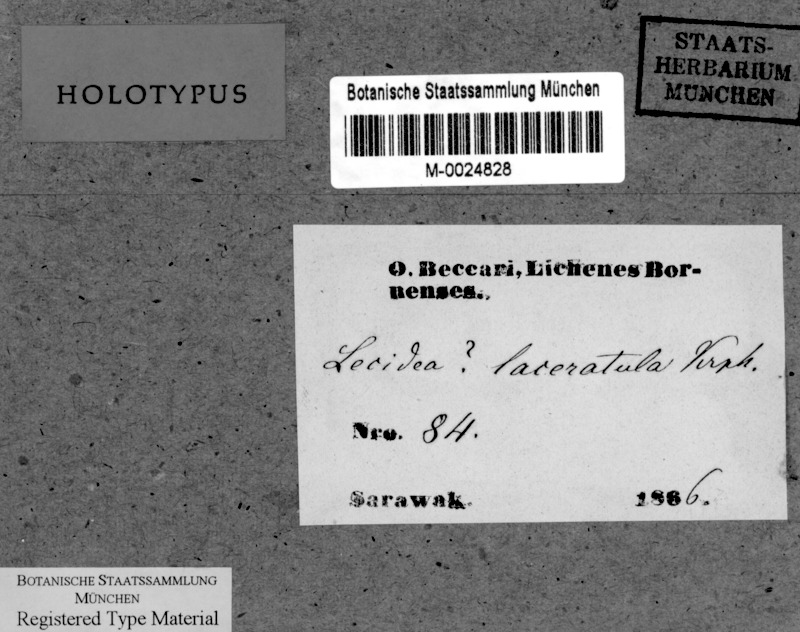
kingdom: Fungi
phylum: Ascomycota
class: Lecanoromycetes
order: Lecideales
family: Lecideaceae
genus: Lecidea
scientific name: Lecidea
